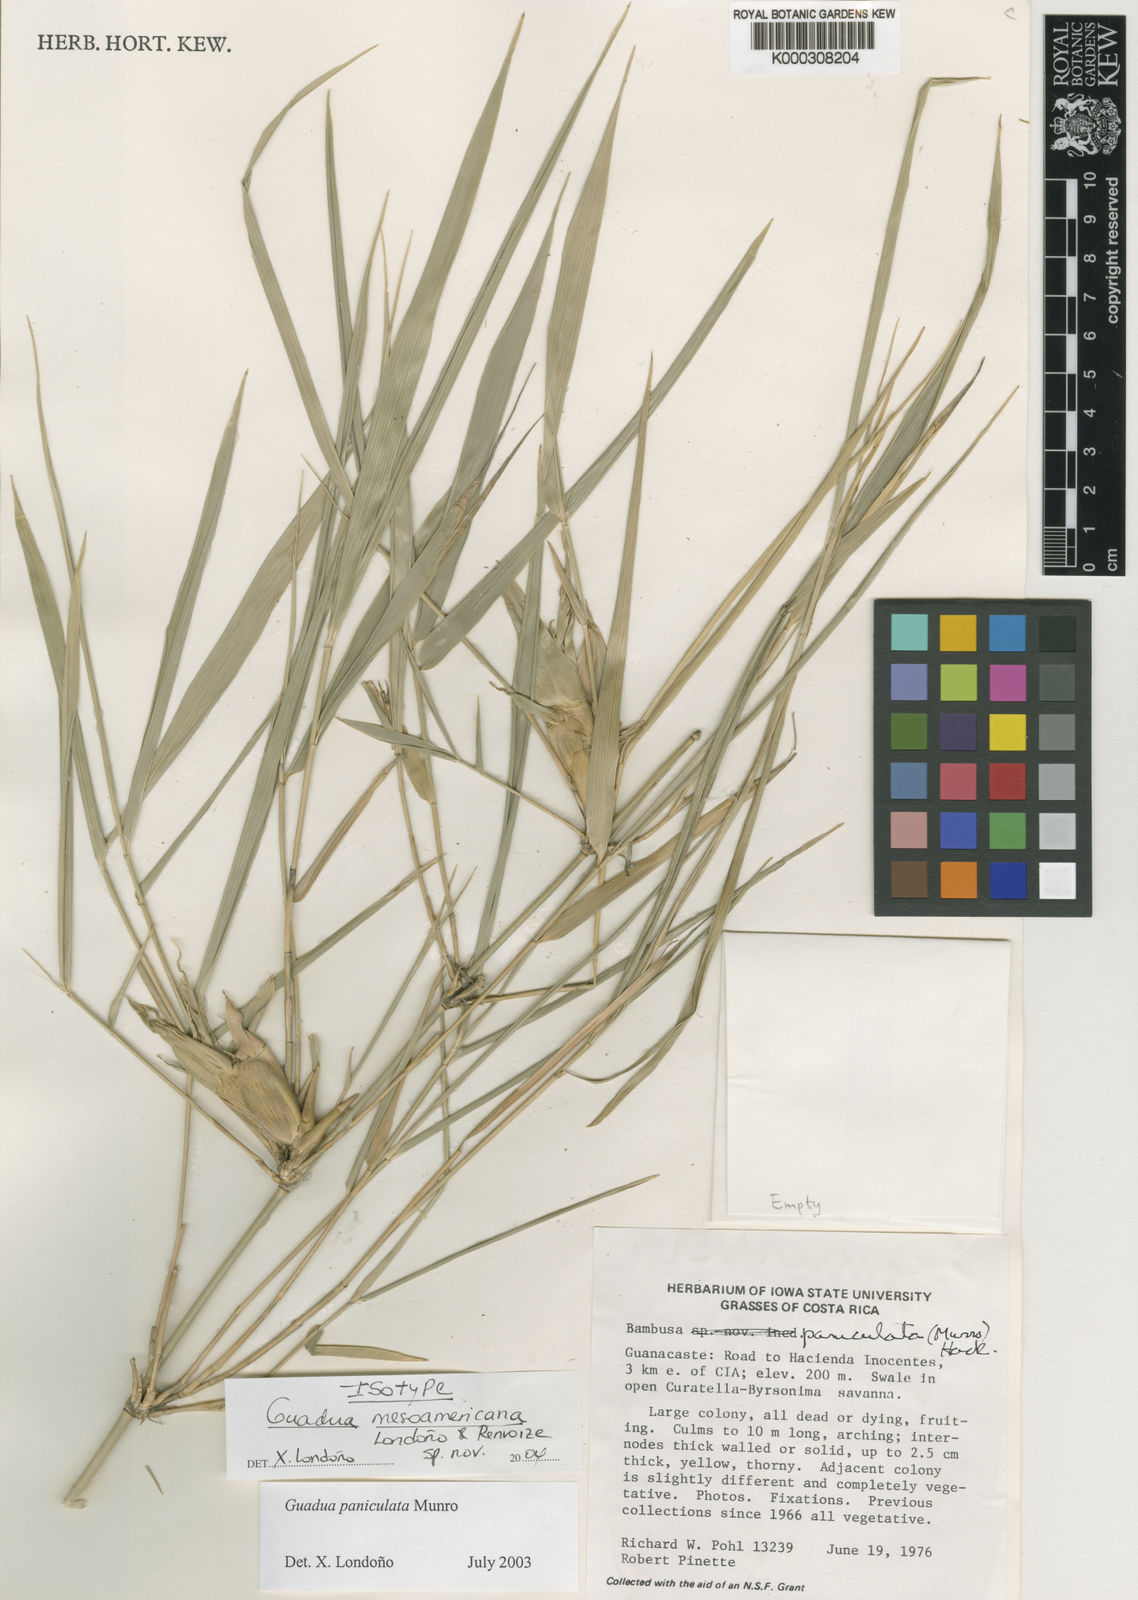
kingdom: Plantae
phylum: Tracheophyta
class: Liliopsida
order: Poales
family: Poaceae
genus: Guadua
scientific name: Guadua
